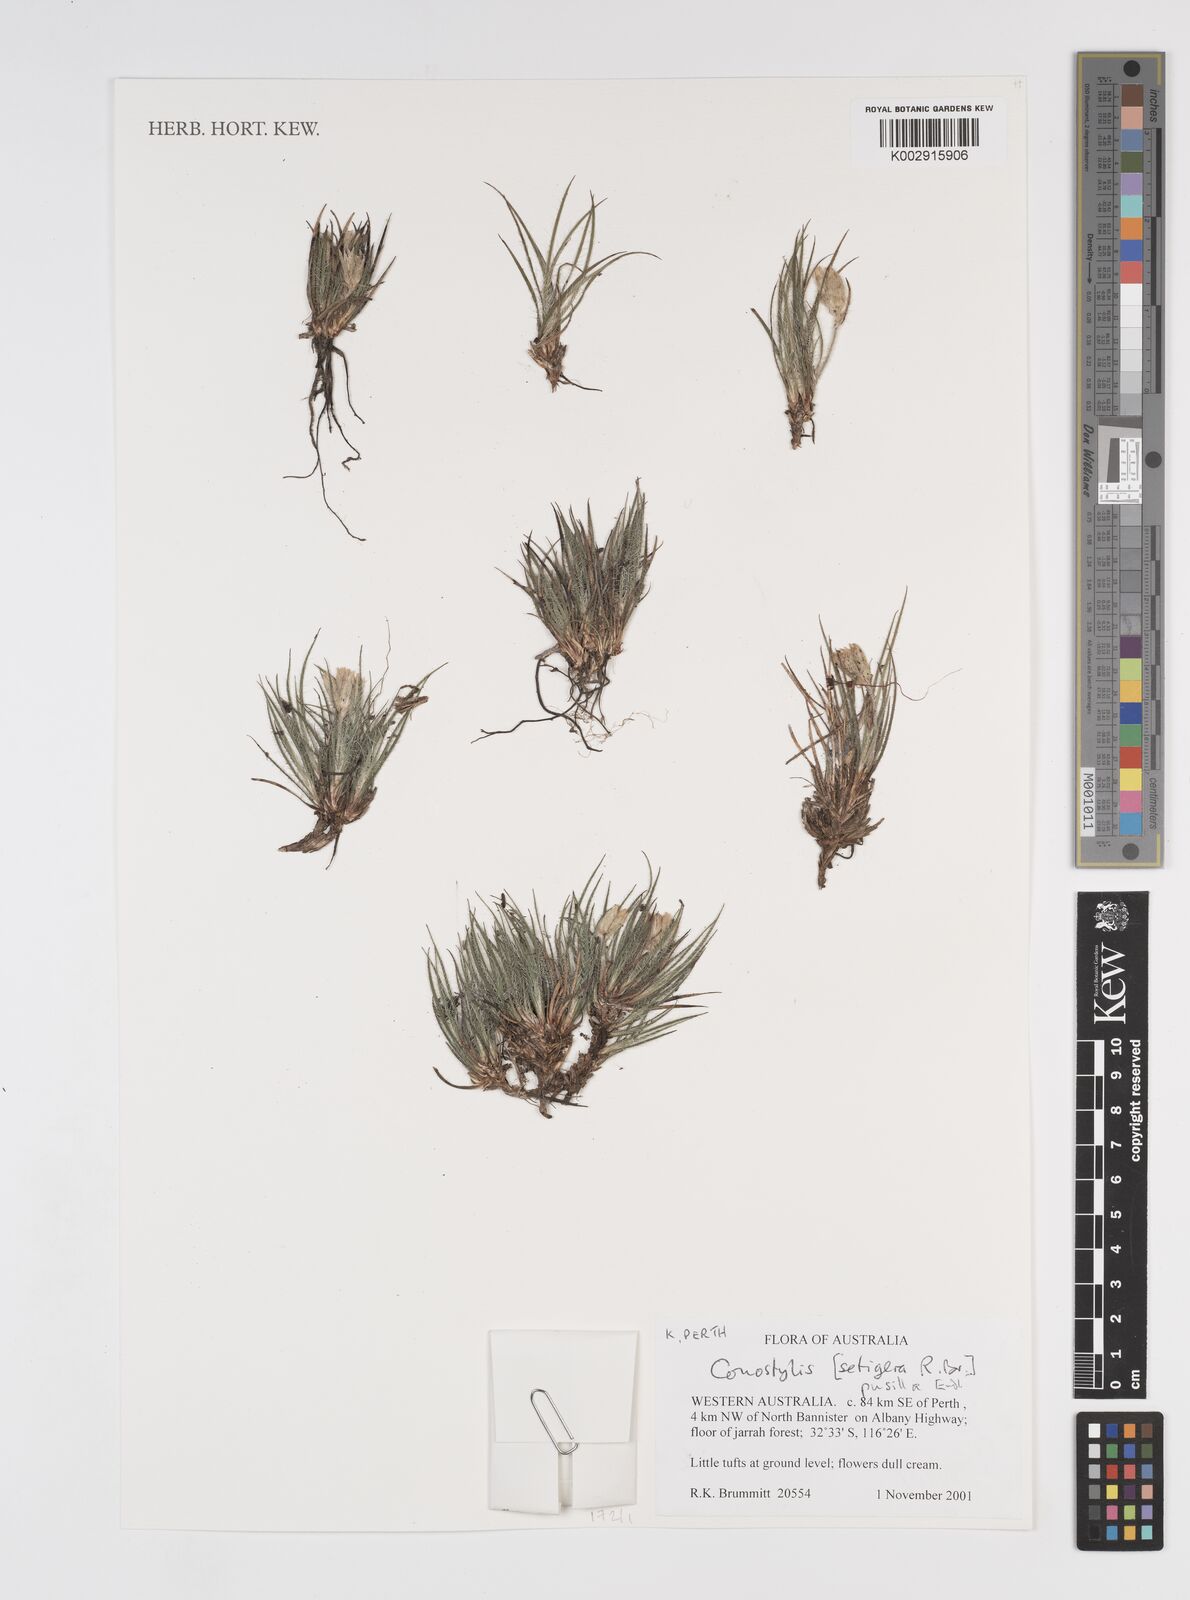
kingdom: Plantae
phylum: Tracheophyta
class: Liliopsida
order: Commelinales
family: Haemodoraceae
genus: Conostylis
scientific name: Conostylis setigera
